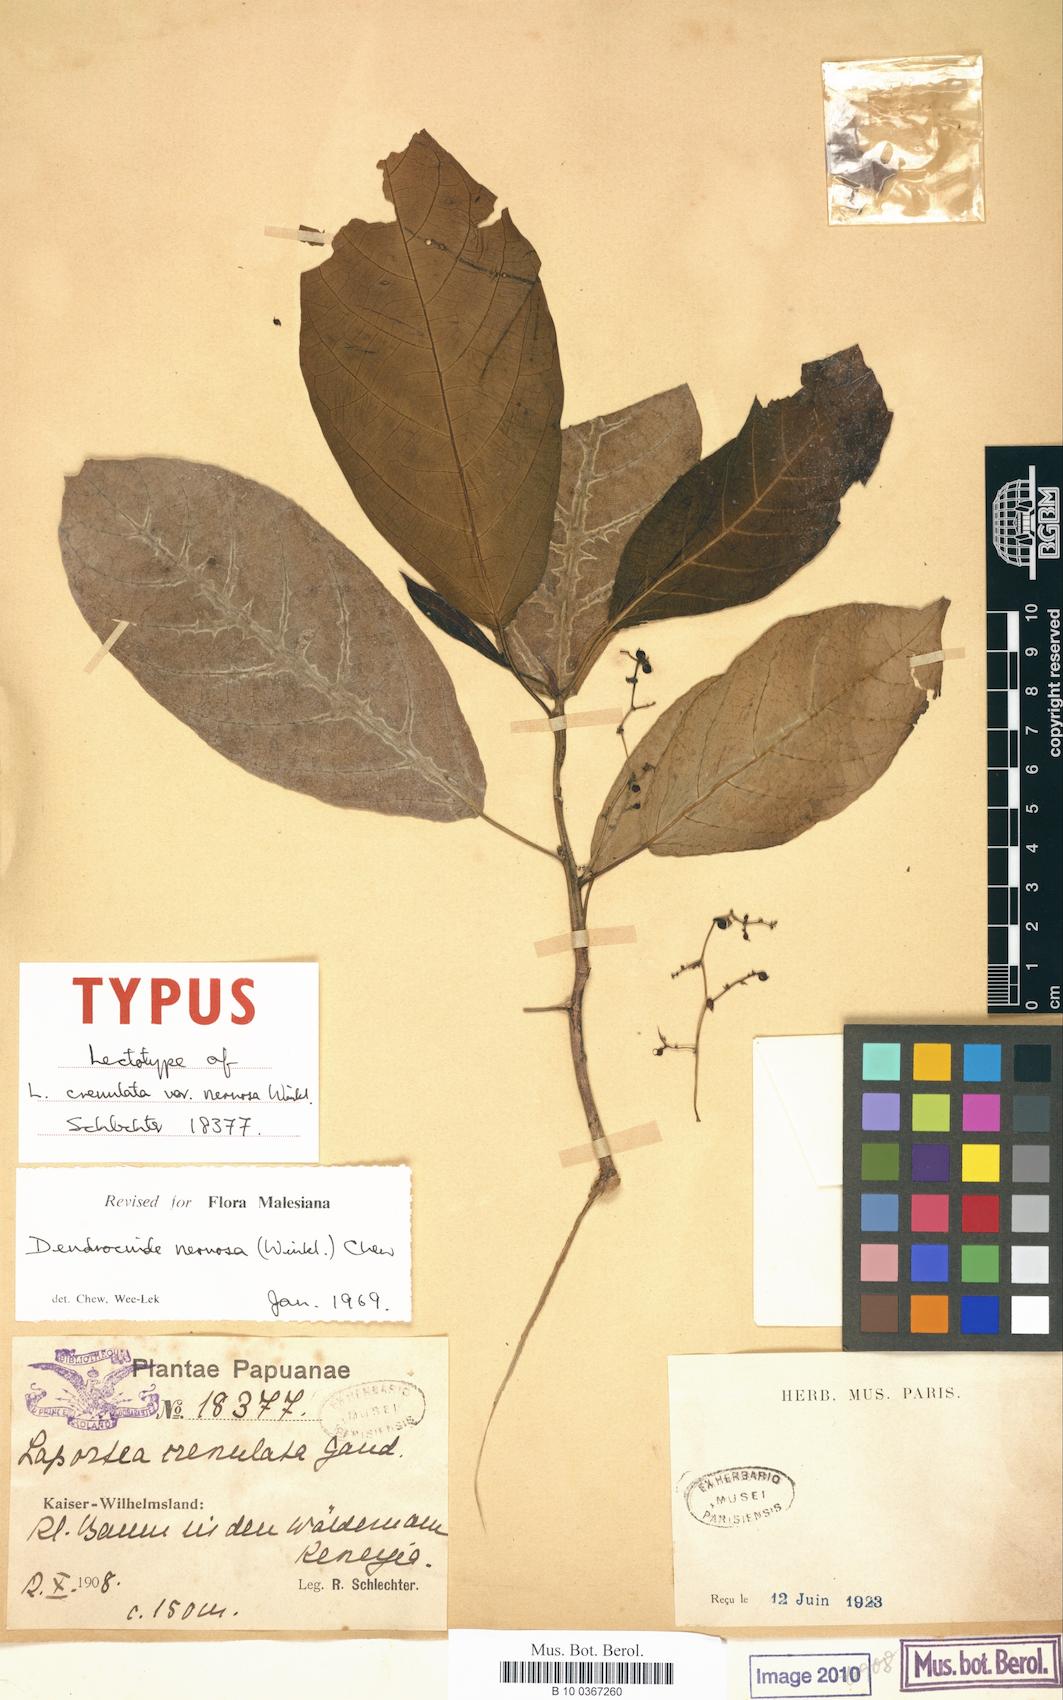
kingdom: Plantae
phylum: Tracheophyta
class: Magnoliopsida
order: Rosales
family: Urticaceae
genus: Dendrocnide
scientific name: Dendrocnide nervosa
